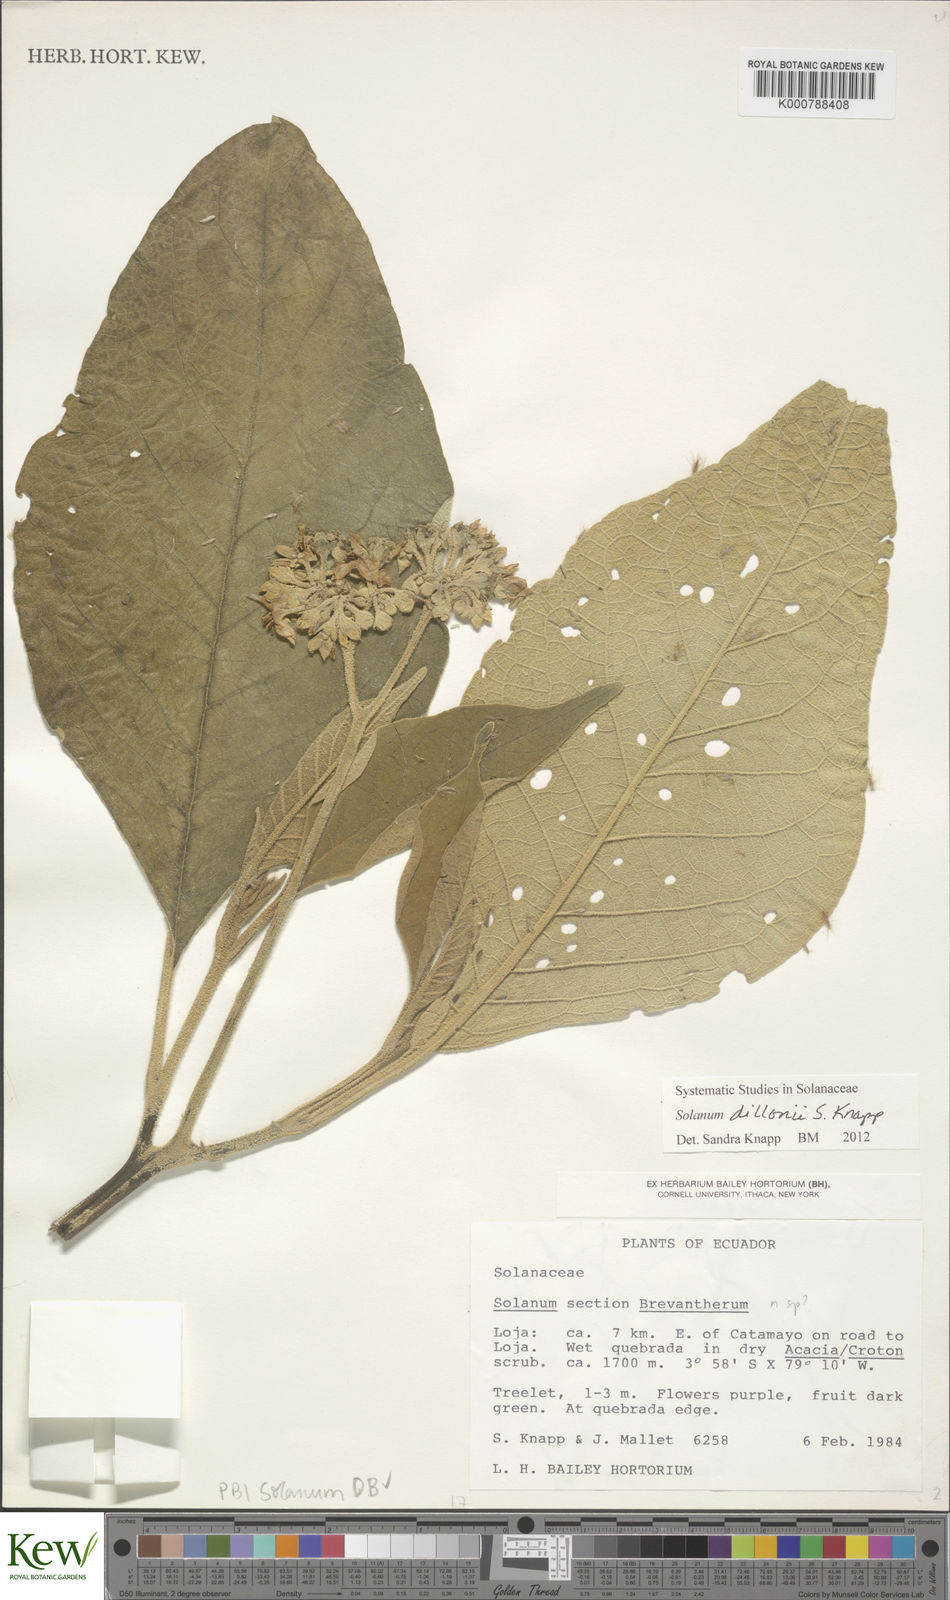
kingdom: Plantae
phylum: Tracheophyta
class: Magnoliopsida
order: Solanales
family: Solanaceae
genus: Solanum
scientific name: Solanum dillonii
